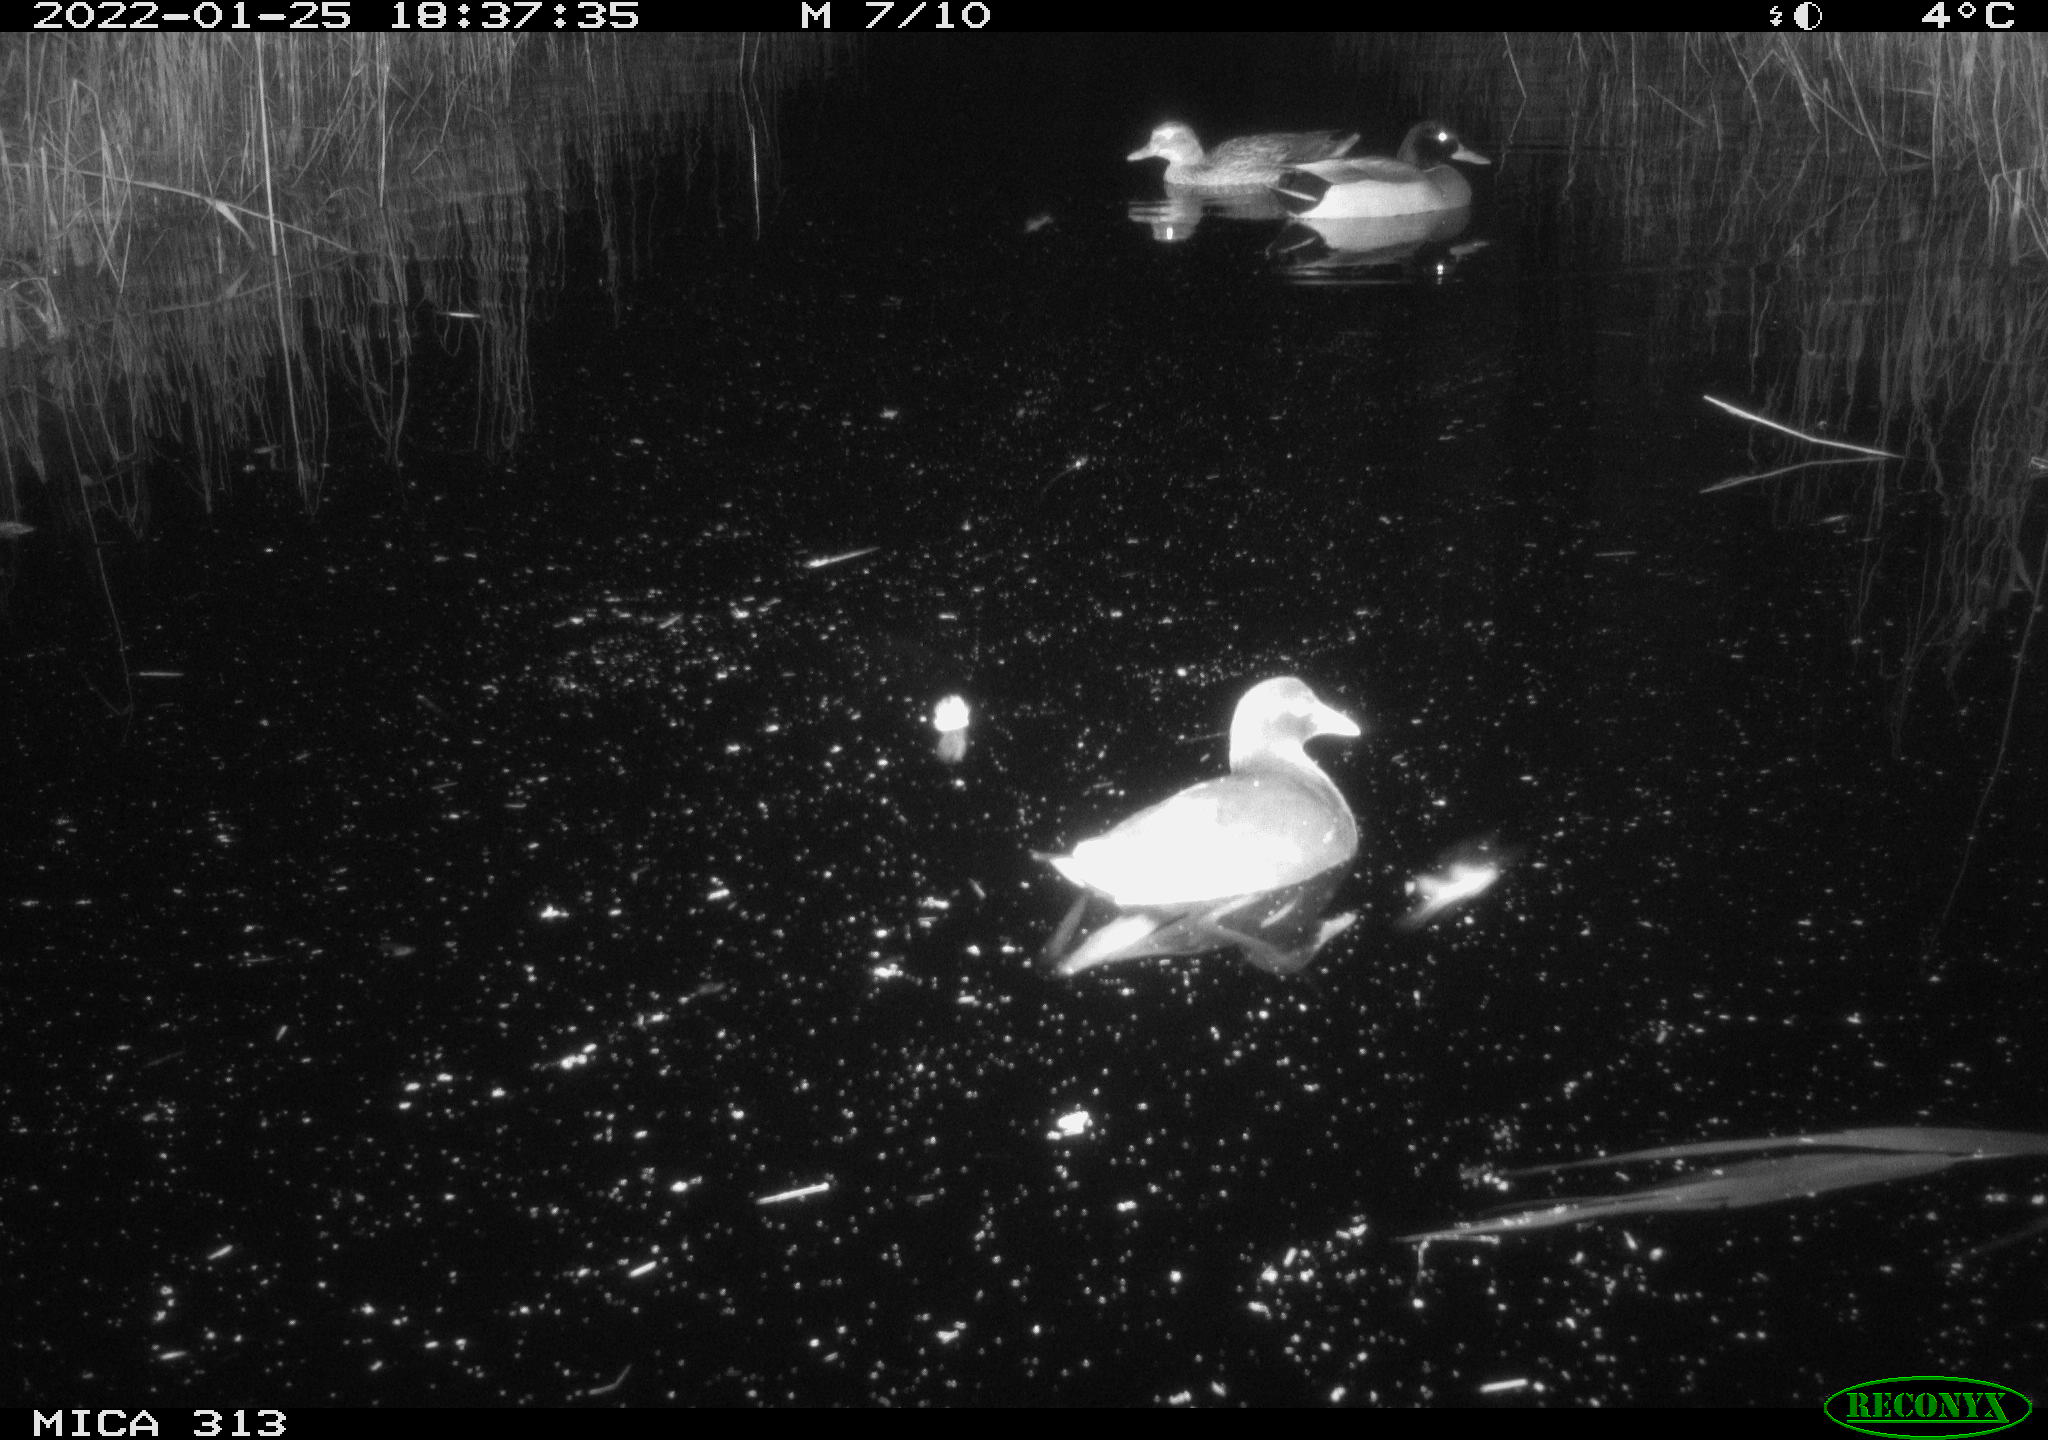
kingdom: Animalia
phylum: Chordata
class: Aves
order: Gruiformes
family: Rallidae
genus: Gallinula
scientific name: Gallinula chloropus
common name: Common moorhen
